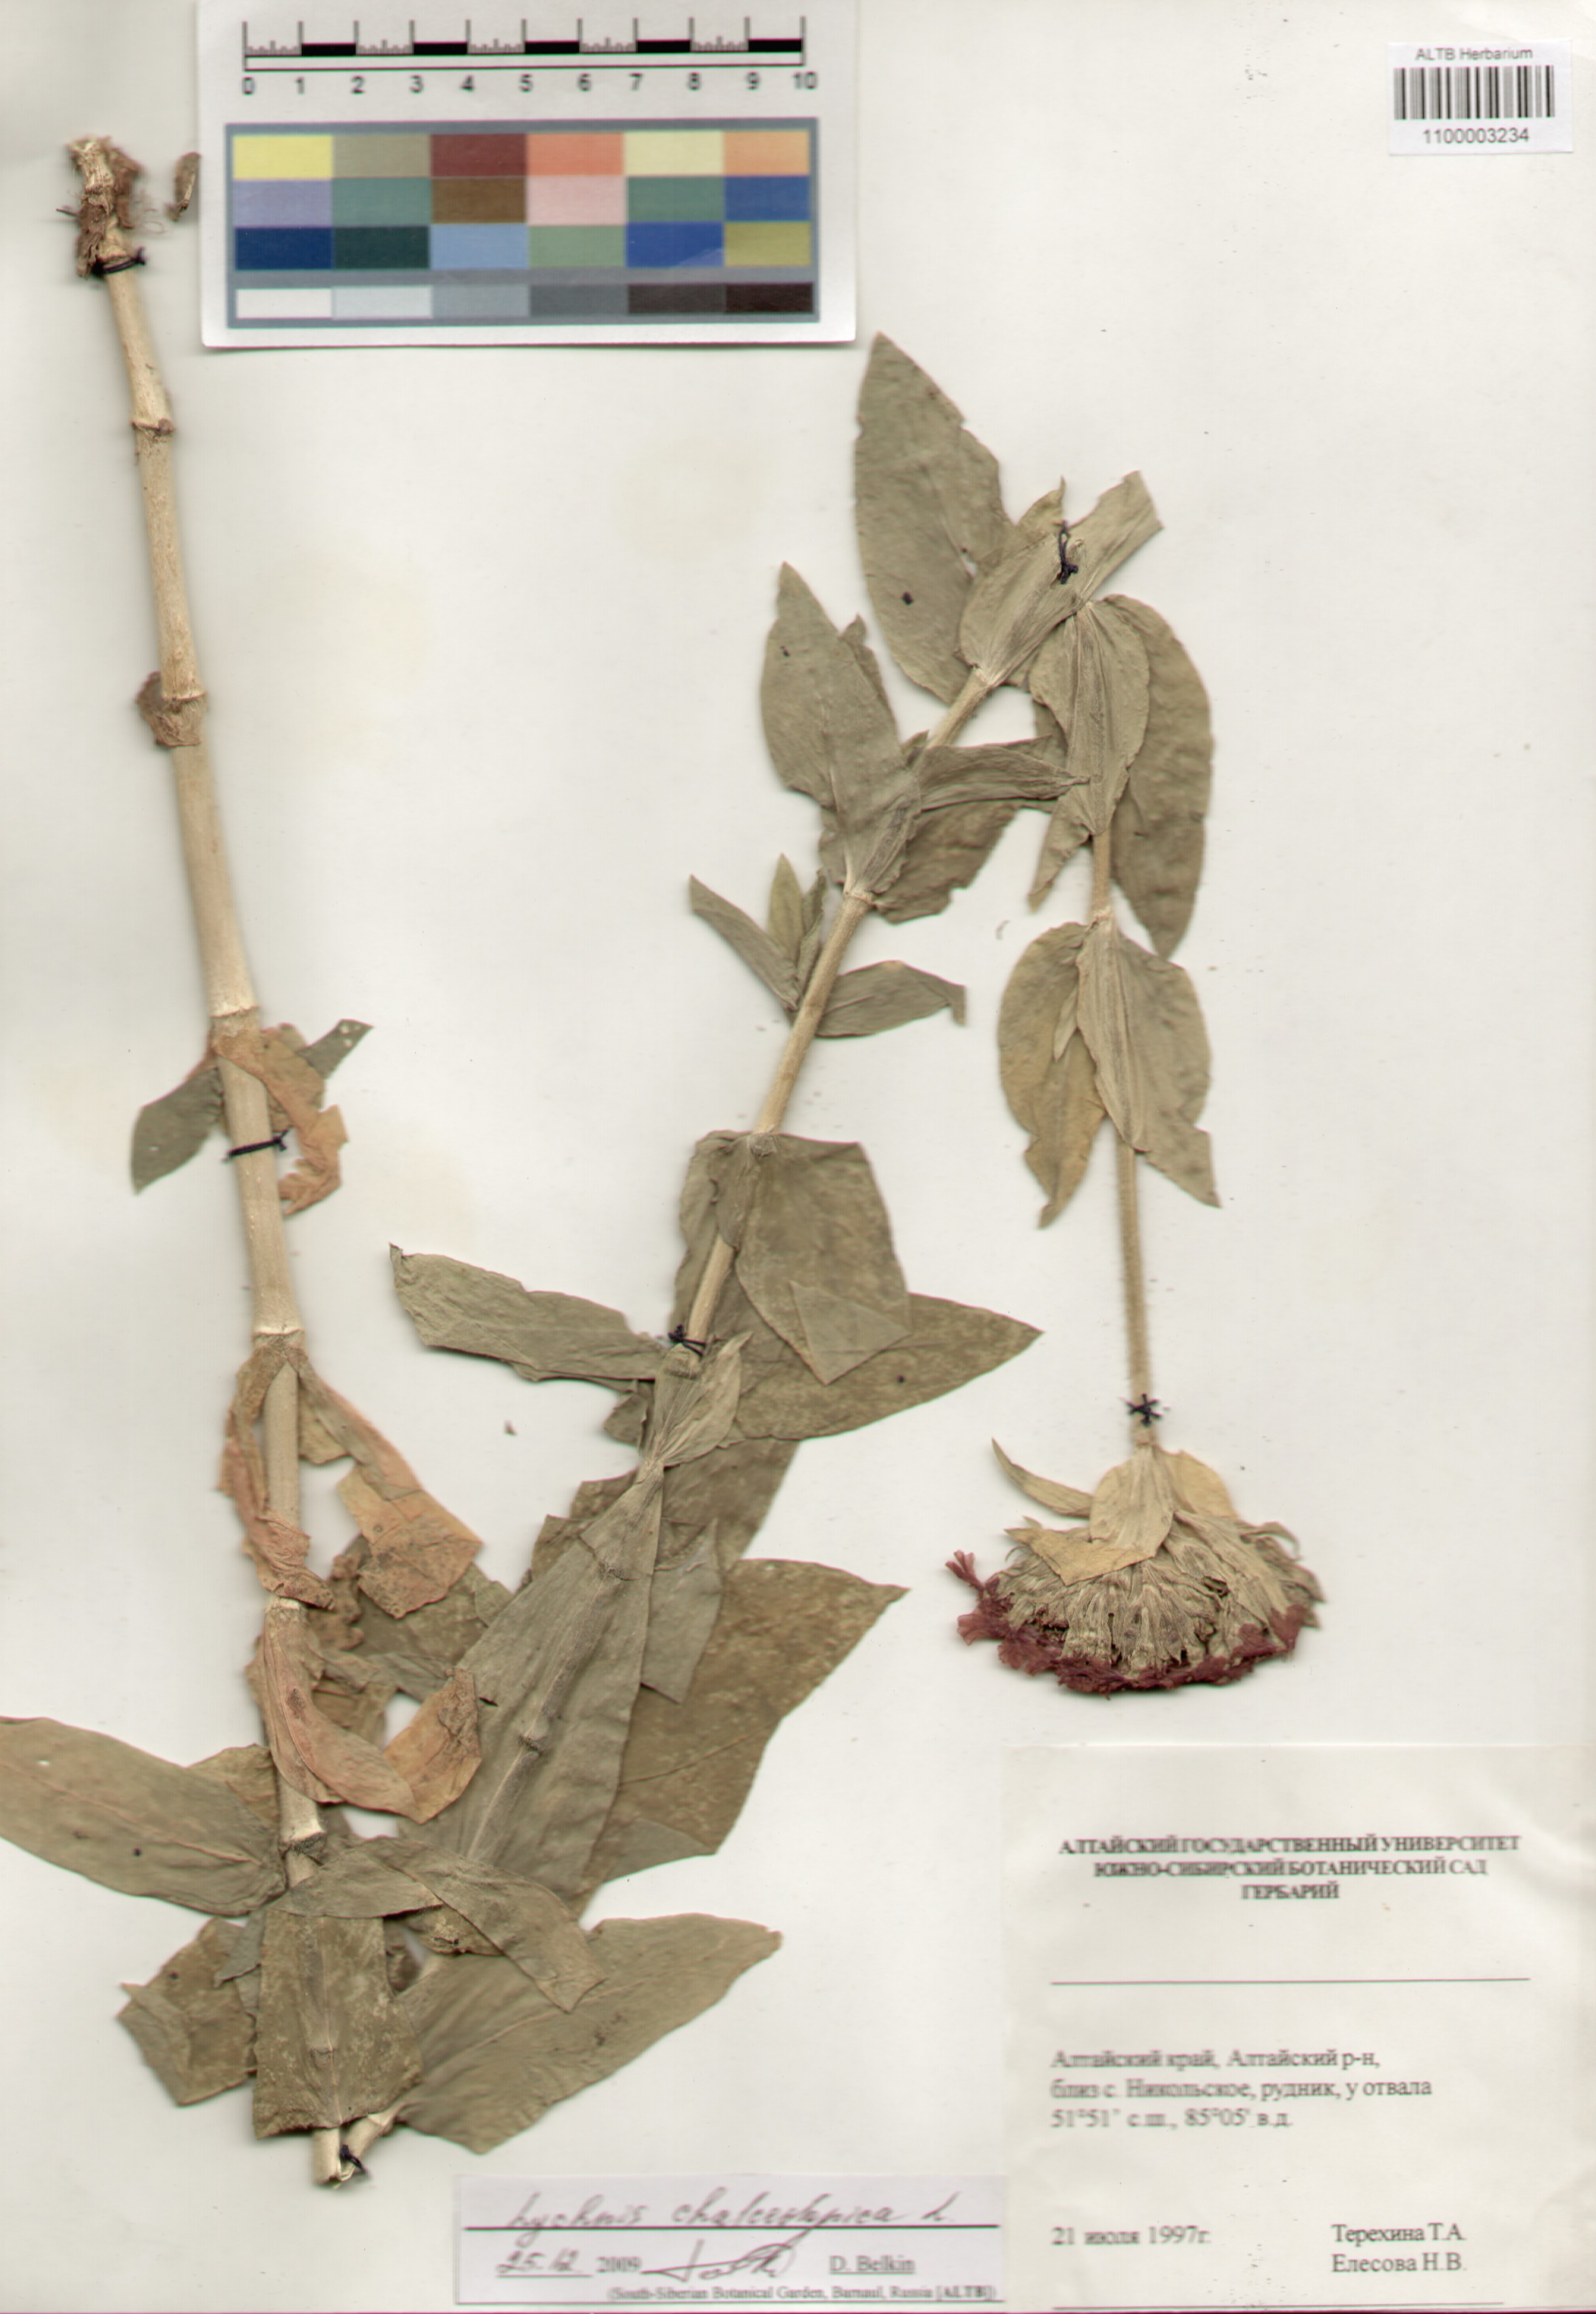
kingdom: Plantae
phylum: Tracheophyta
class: Magnoliopsida
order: Caryophyllales
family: Caryophyllaceae
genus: Silene
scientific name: Silene chalcedonica
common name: Maltese-cross
